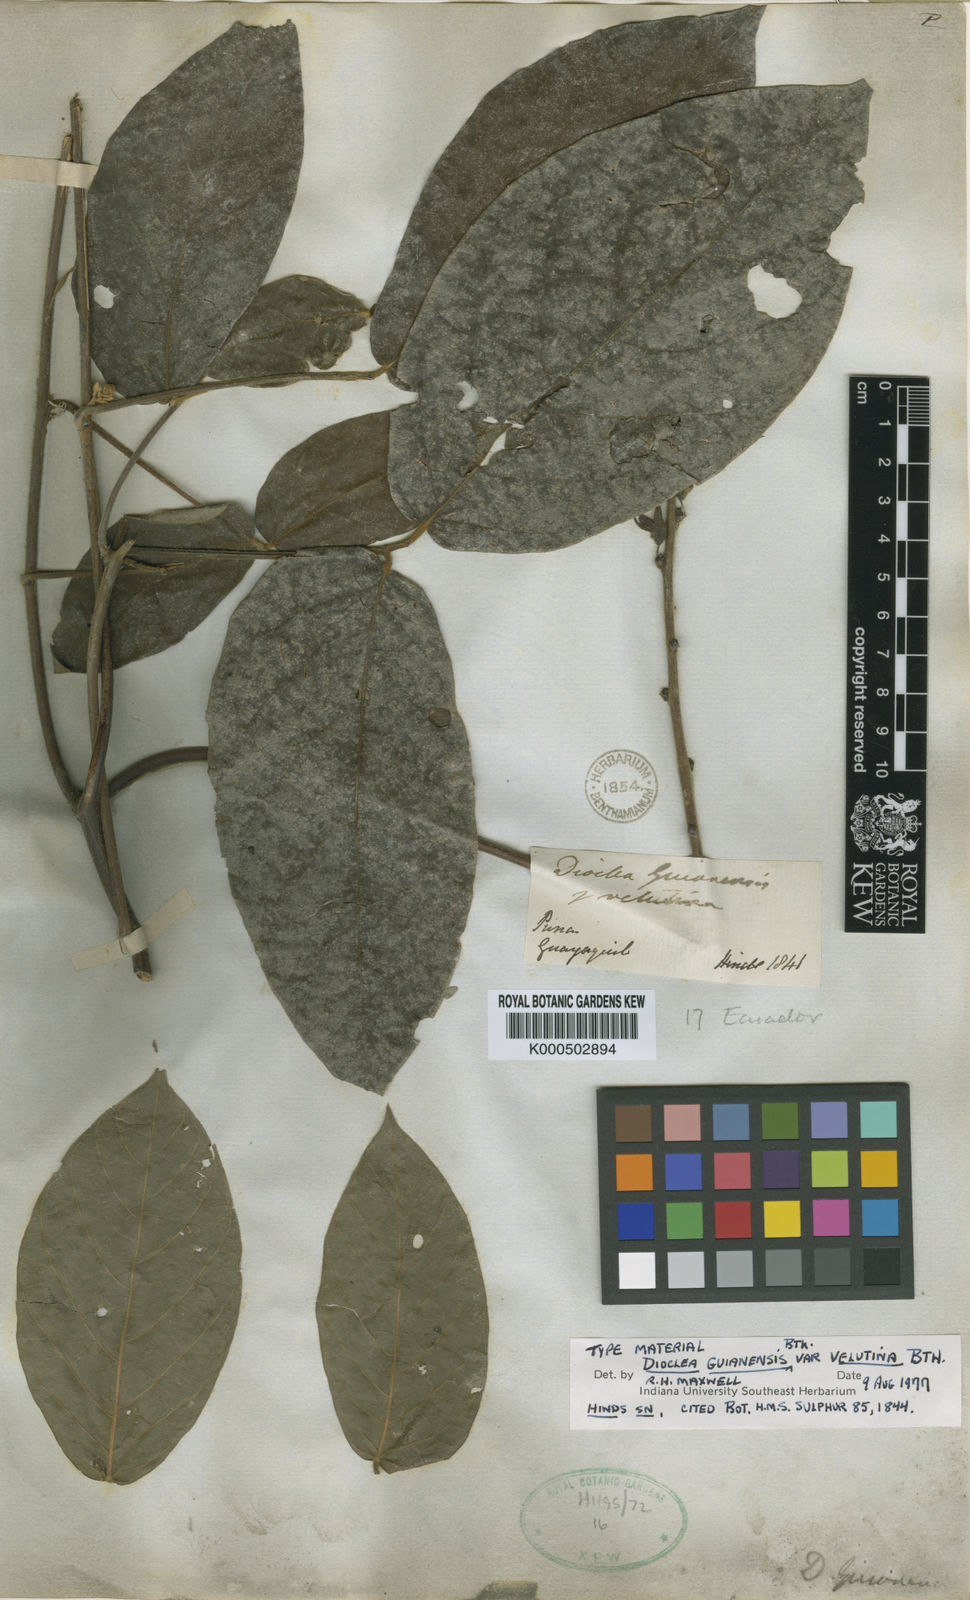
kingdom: Plantae
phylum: Tracheophyta
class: Magnoliopsida
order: Fabales
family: Fabaceae
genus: Dioclea
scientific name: Dioclea guianensis
